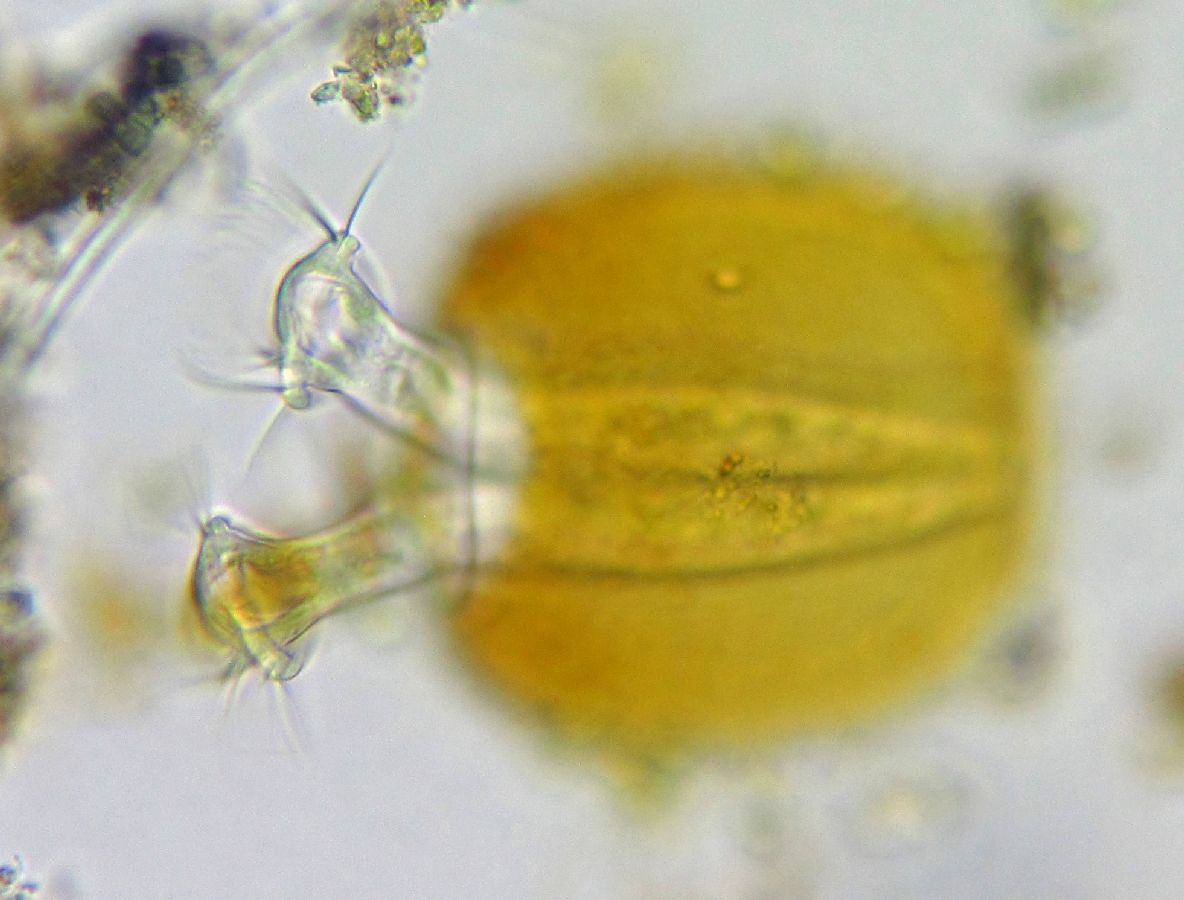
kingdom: Chromista
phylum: Ciliophora
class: Oligohymenophorea
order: Peritrichida
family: Vaginicolidae
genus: Platycola
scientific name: Platycola decumbens
